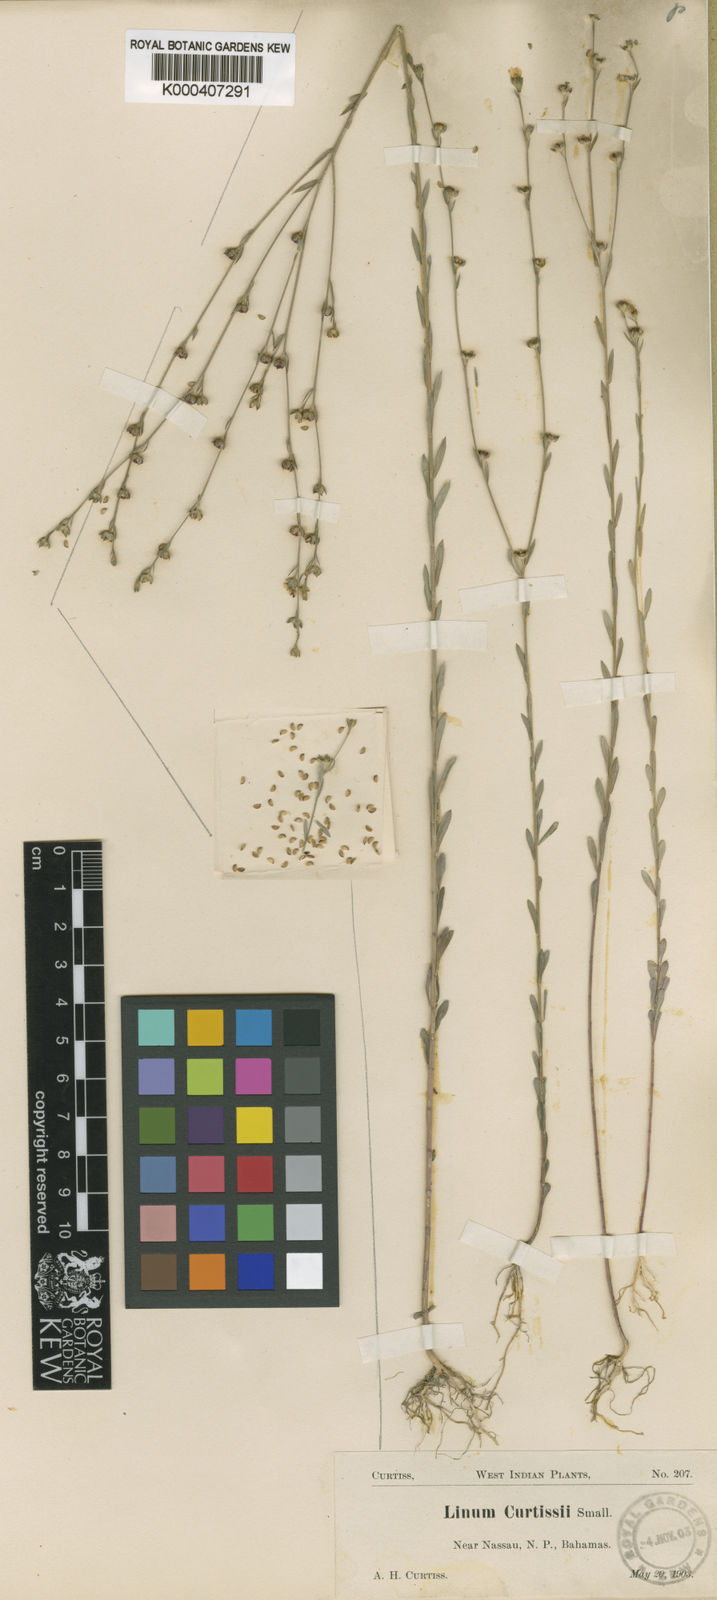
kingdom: Plantae
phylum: Tracheophyta
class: Magnoliopsida
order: Malpighiales
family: Linaceae
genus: Linum
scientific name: Linum medium
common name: Stiff yellow flax
